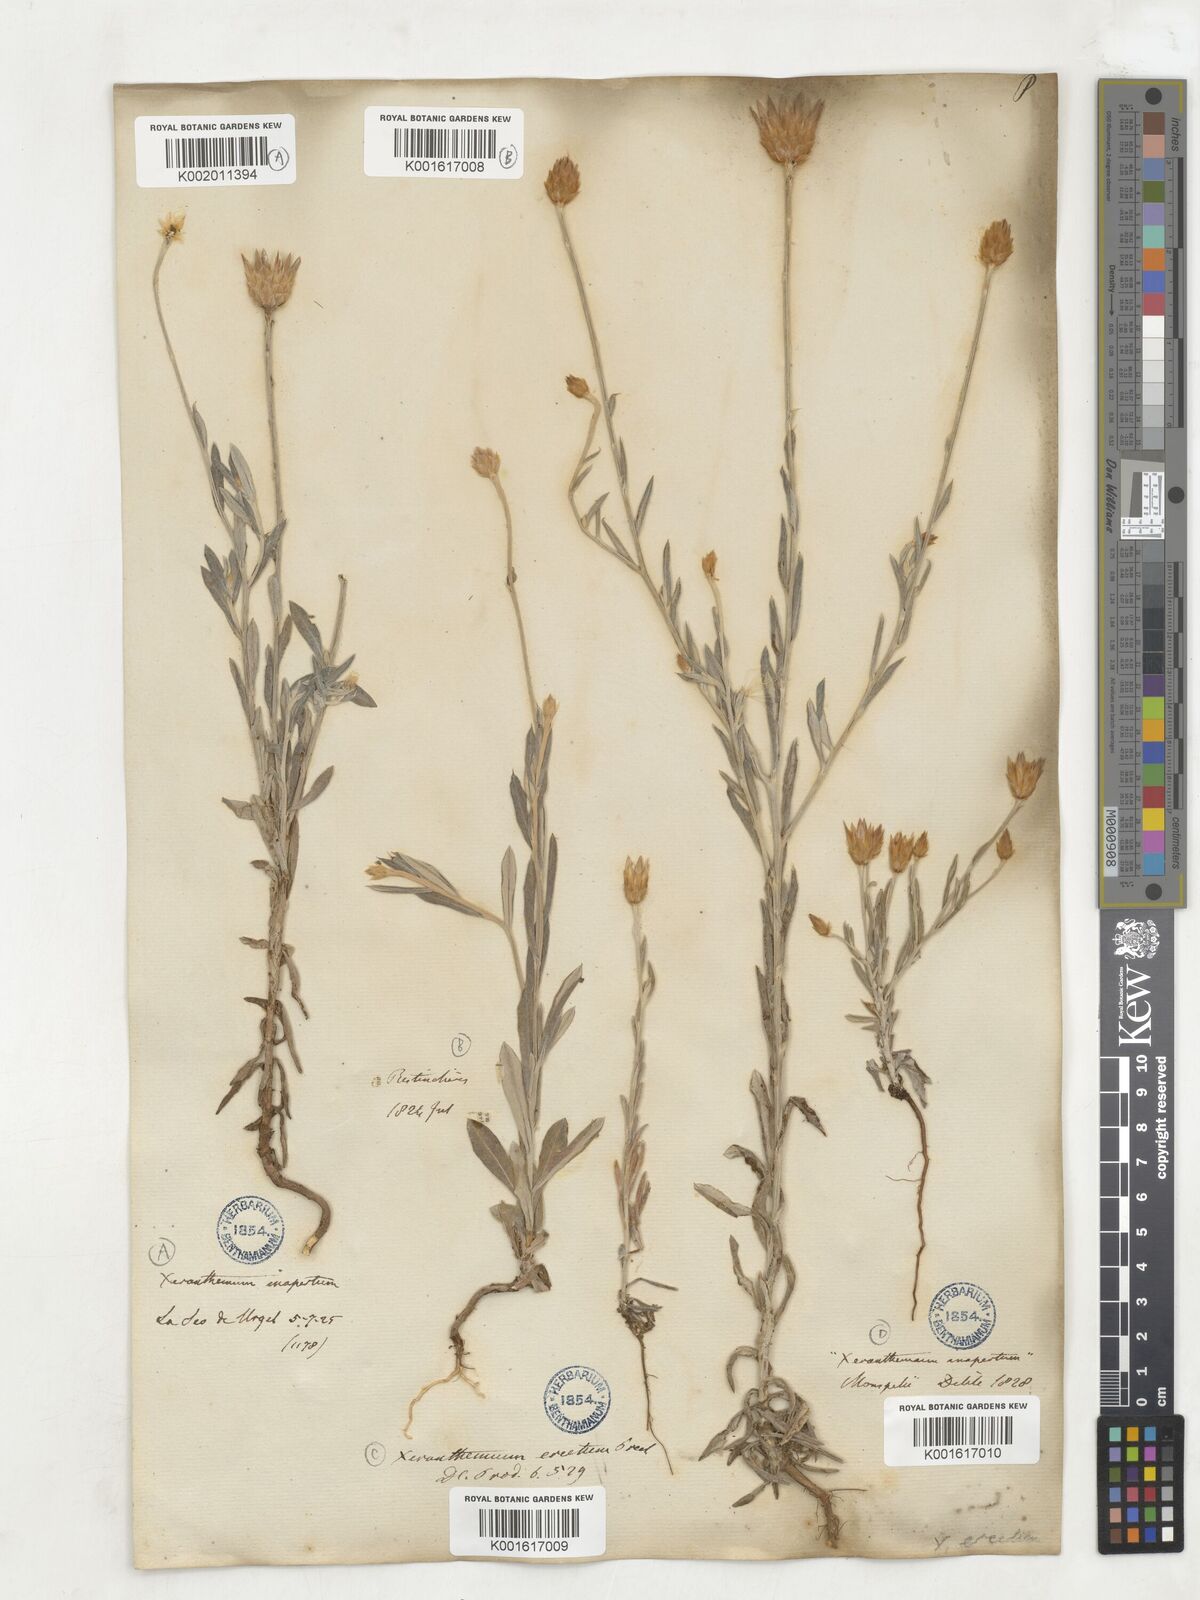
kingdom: Plantae
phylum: Tracheophyta
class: Magnoliopsida
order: Asterales
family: Asteraceae
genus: Xeranthemum
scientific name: Xeranthemum
